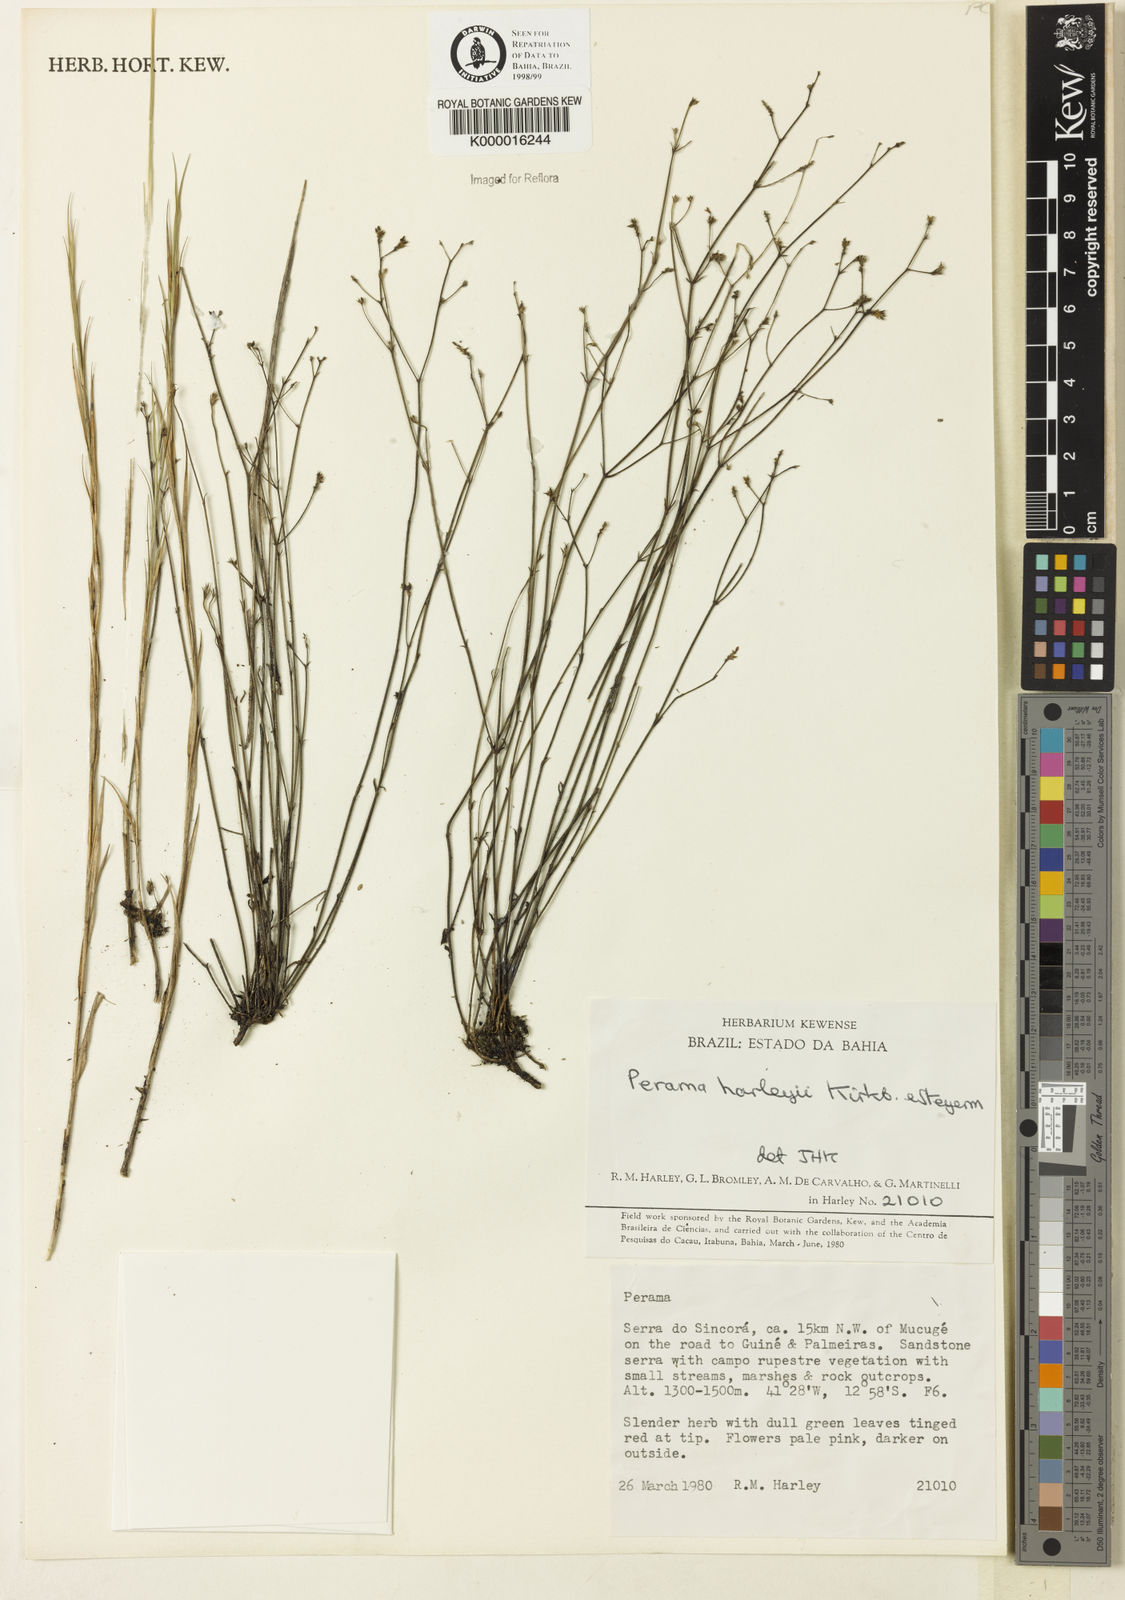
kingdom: Plantae
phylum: Tracheophyta
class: Magnoliopsida
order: Gentianales
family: Rubiaceae
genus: Perama
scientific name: Perama harleyi
